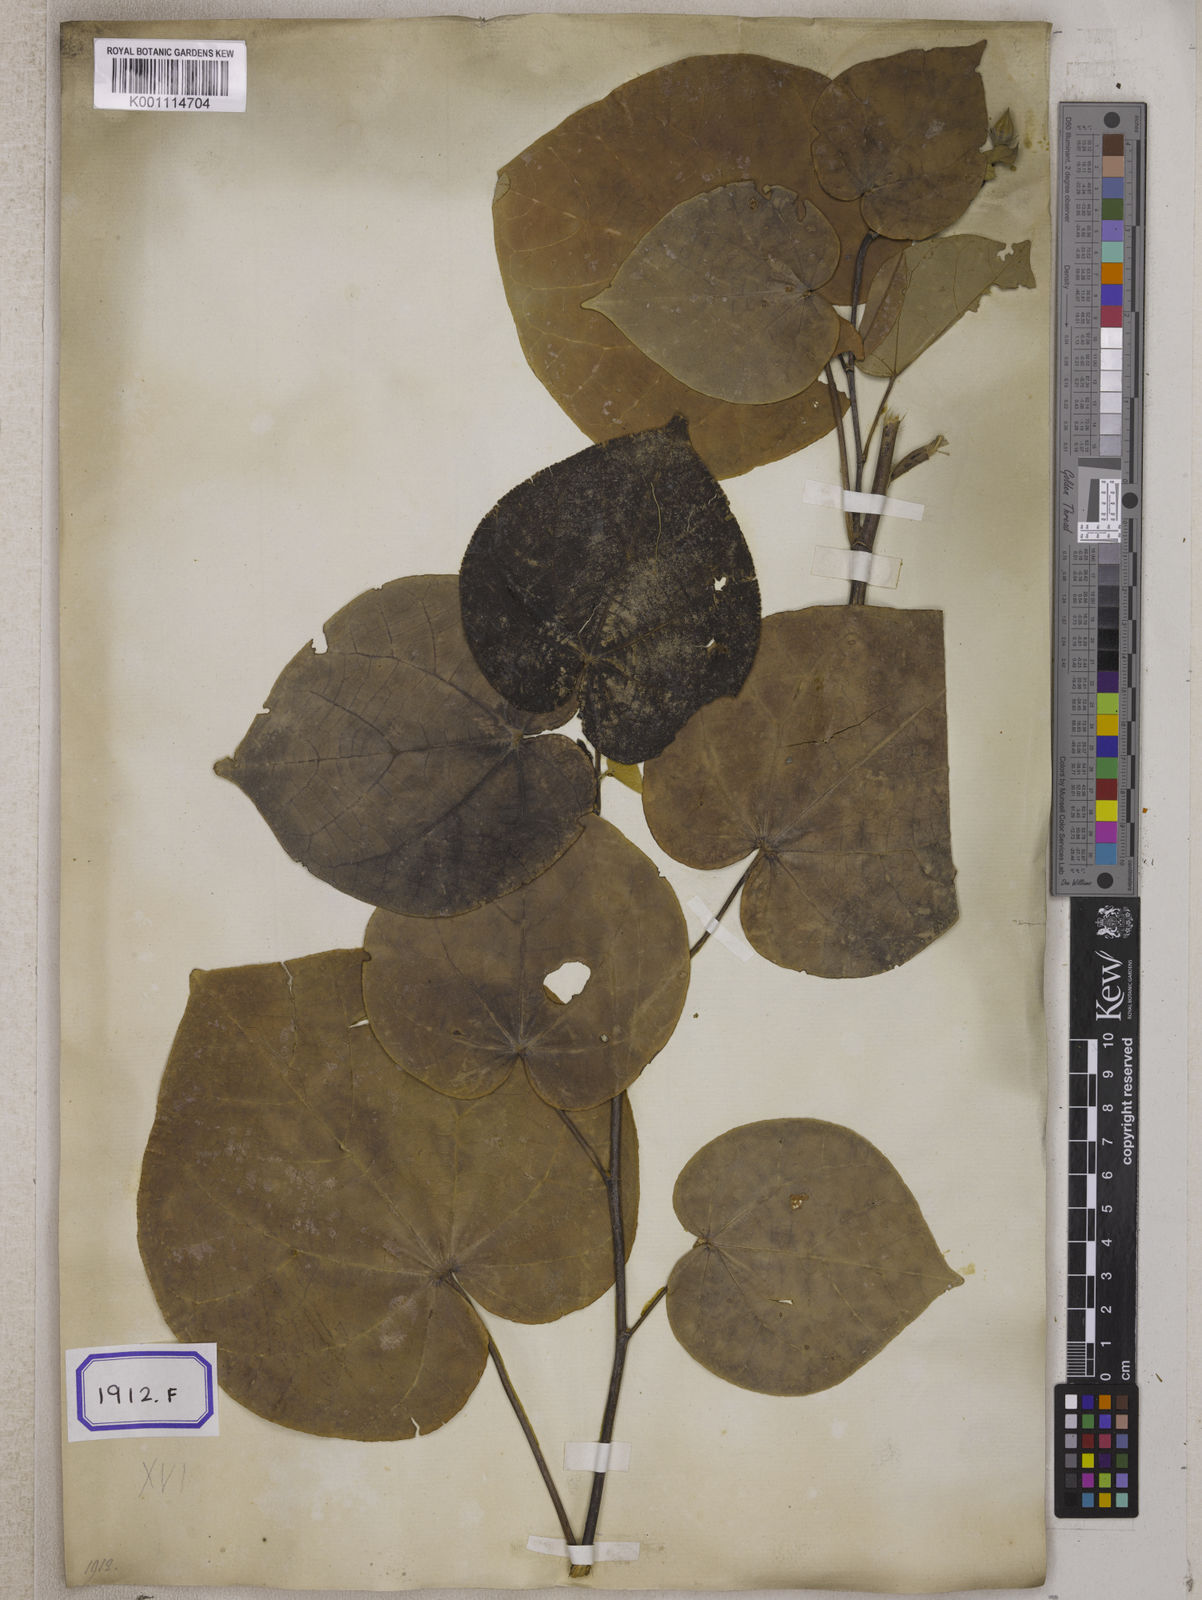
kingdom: Plantae
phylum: Tracheophyta
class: Magnoliopsida
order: Malvales
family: Malvaceae
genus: Talipariti
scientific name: Talipariti tiliaceum
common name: Sea hibiscus
